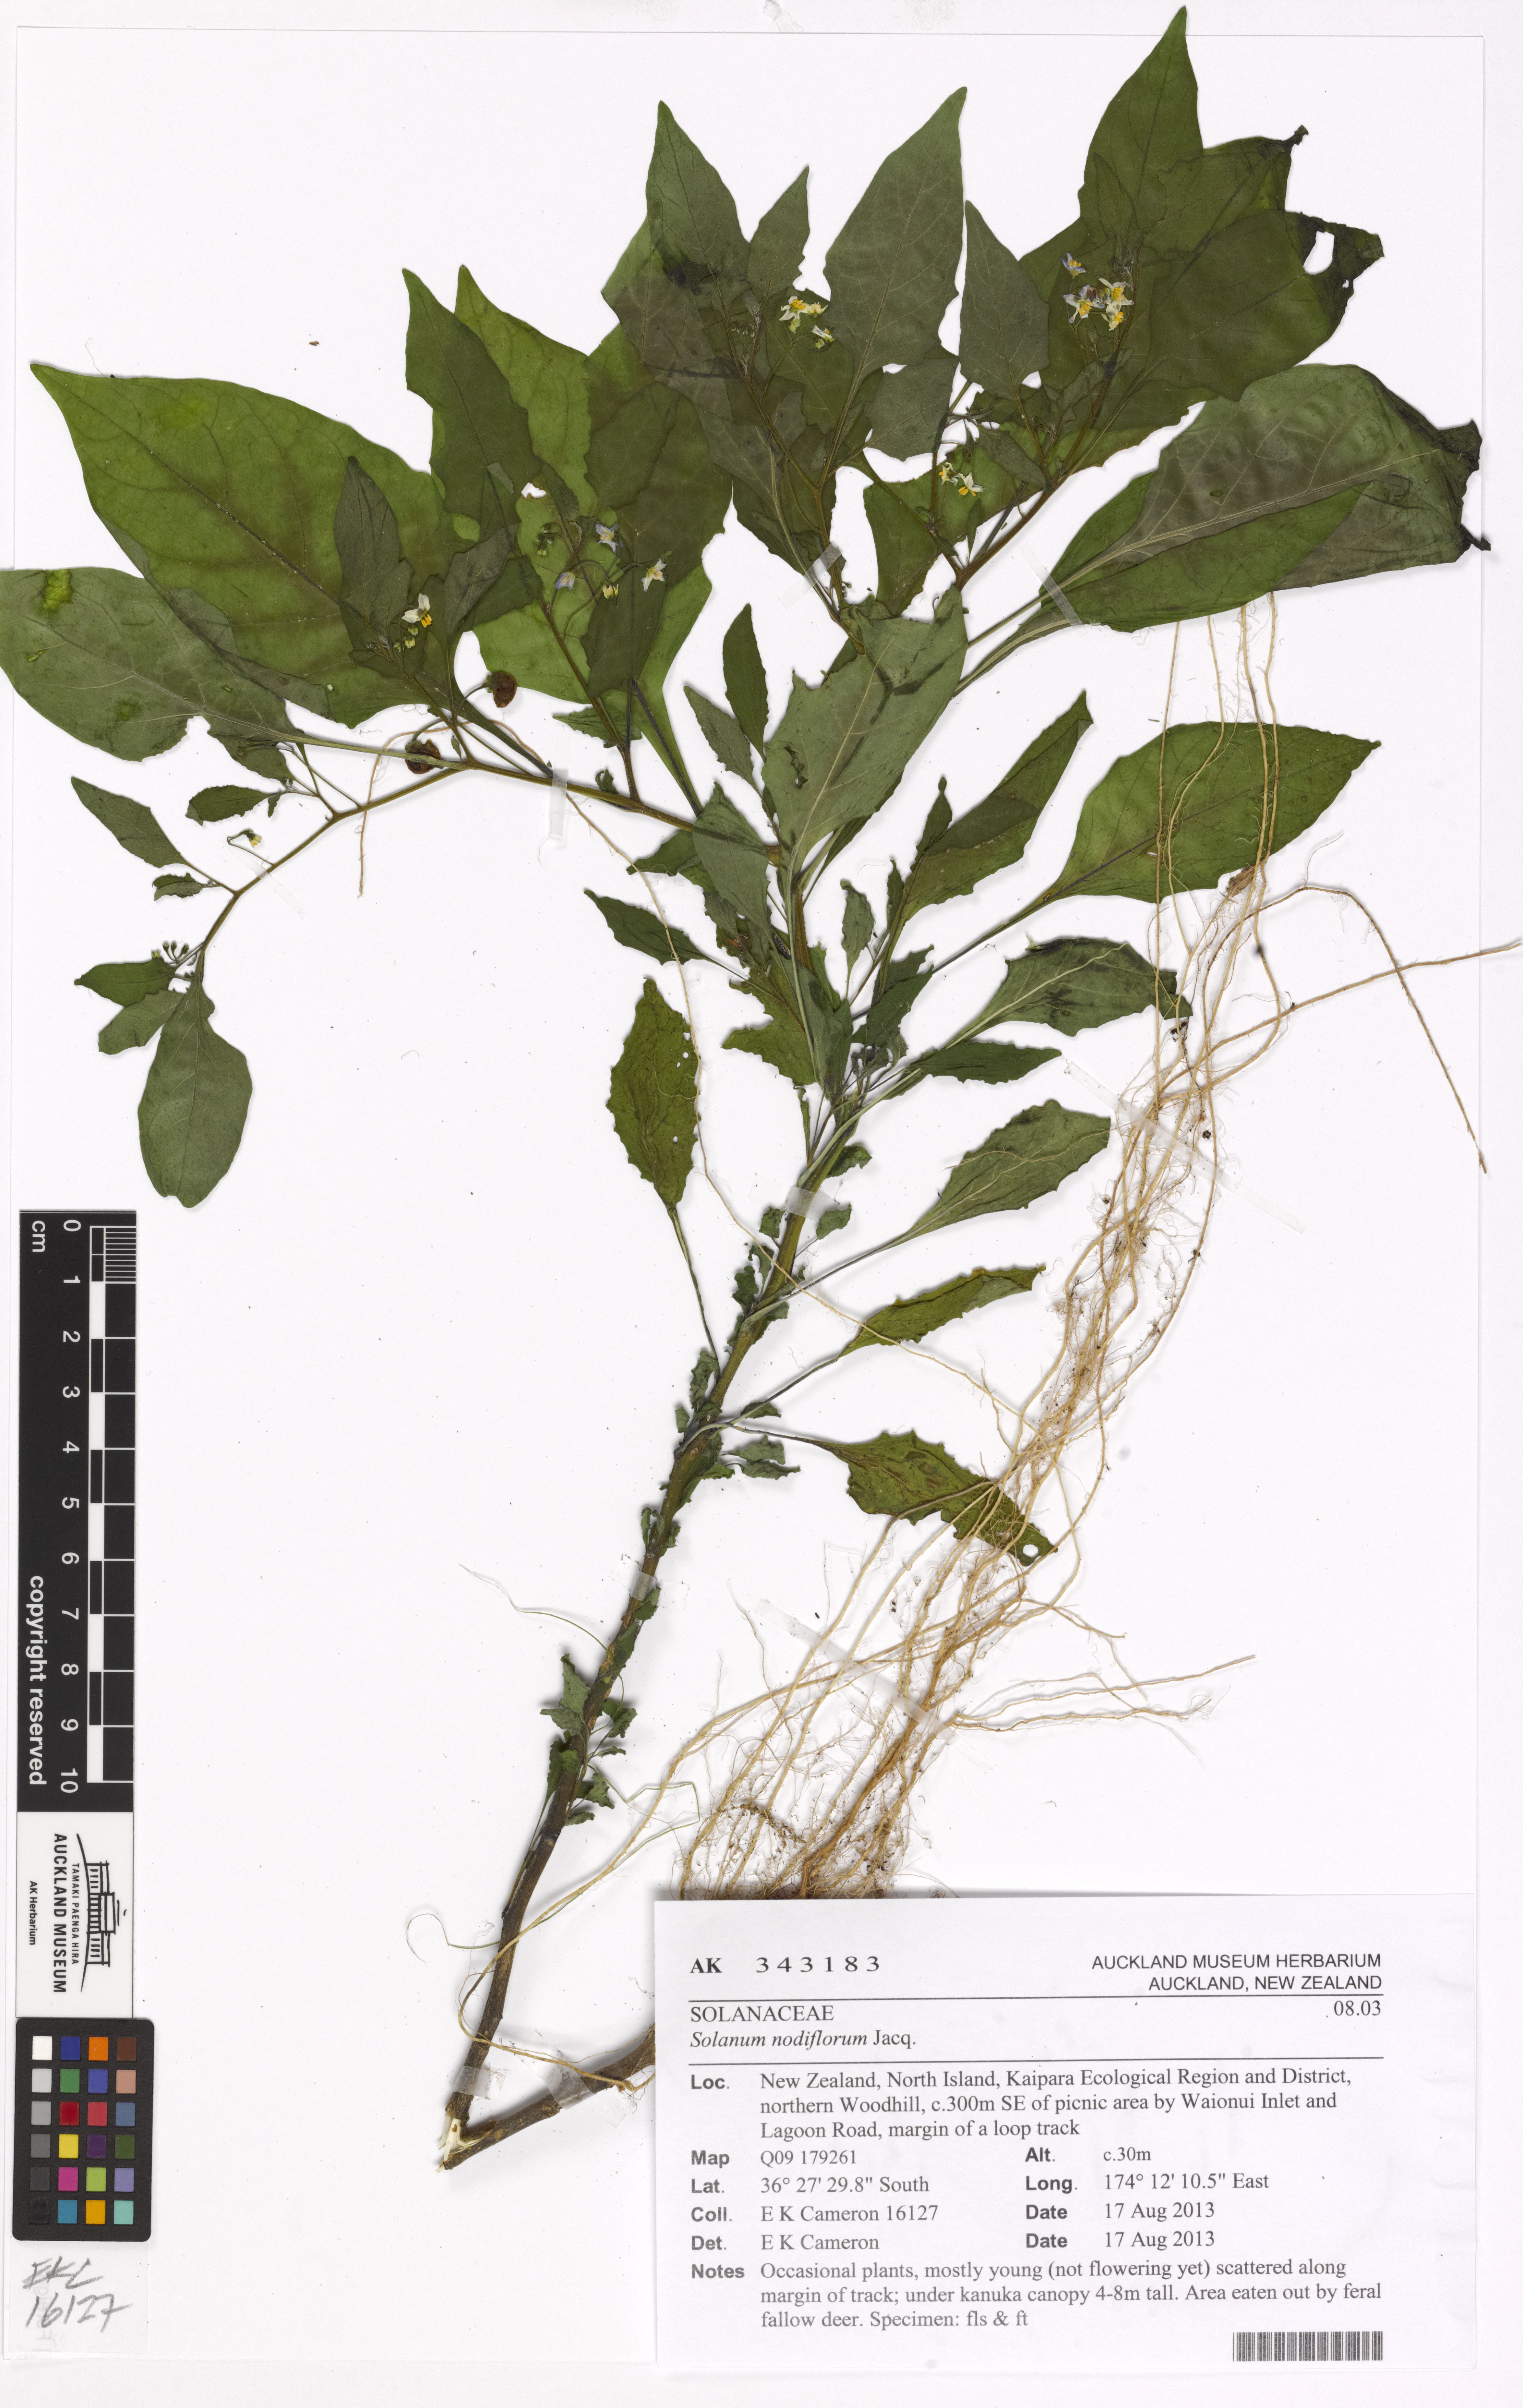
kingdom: Plantae
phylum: Tracheophyta
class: Magnoliopsida
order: Solanales
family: Solanaceae
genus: Solanum
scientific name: Solanum americanum
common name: American black nightshade
